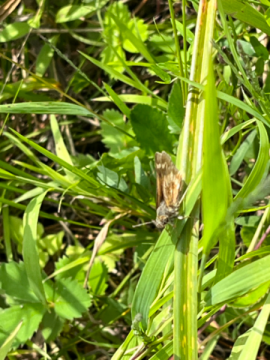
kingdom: Animalia
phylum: Arthropoda
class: Insecta
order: Lepidoptera
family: Hesperiidae
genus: Polites
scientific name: Polites
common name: Long Dash Skipper
